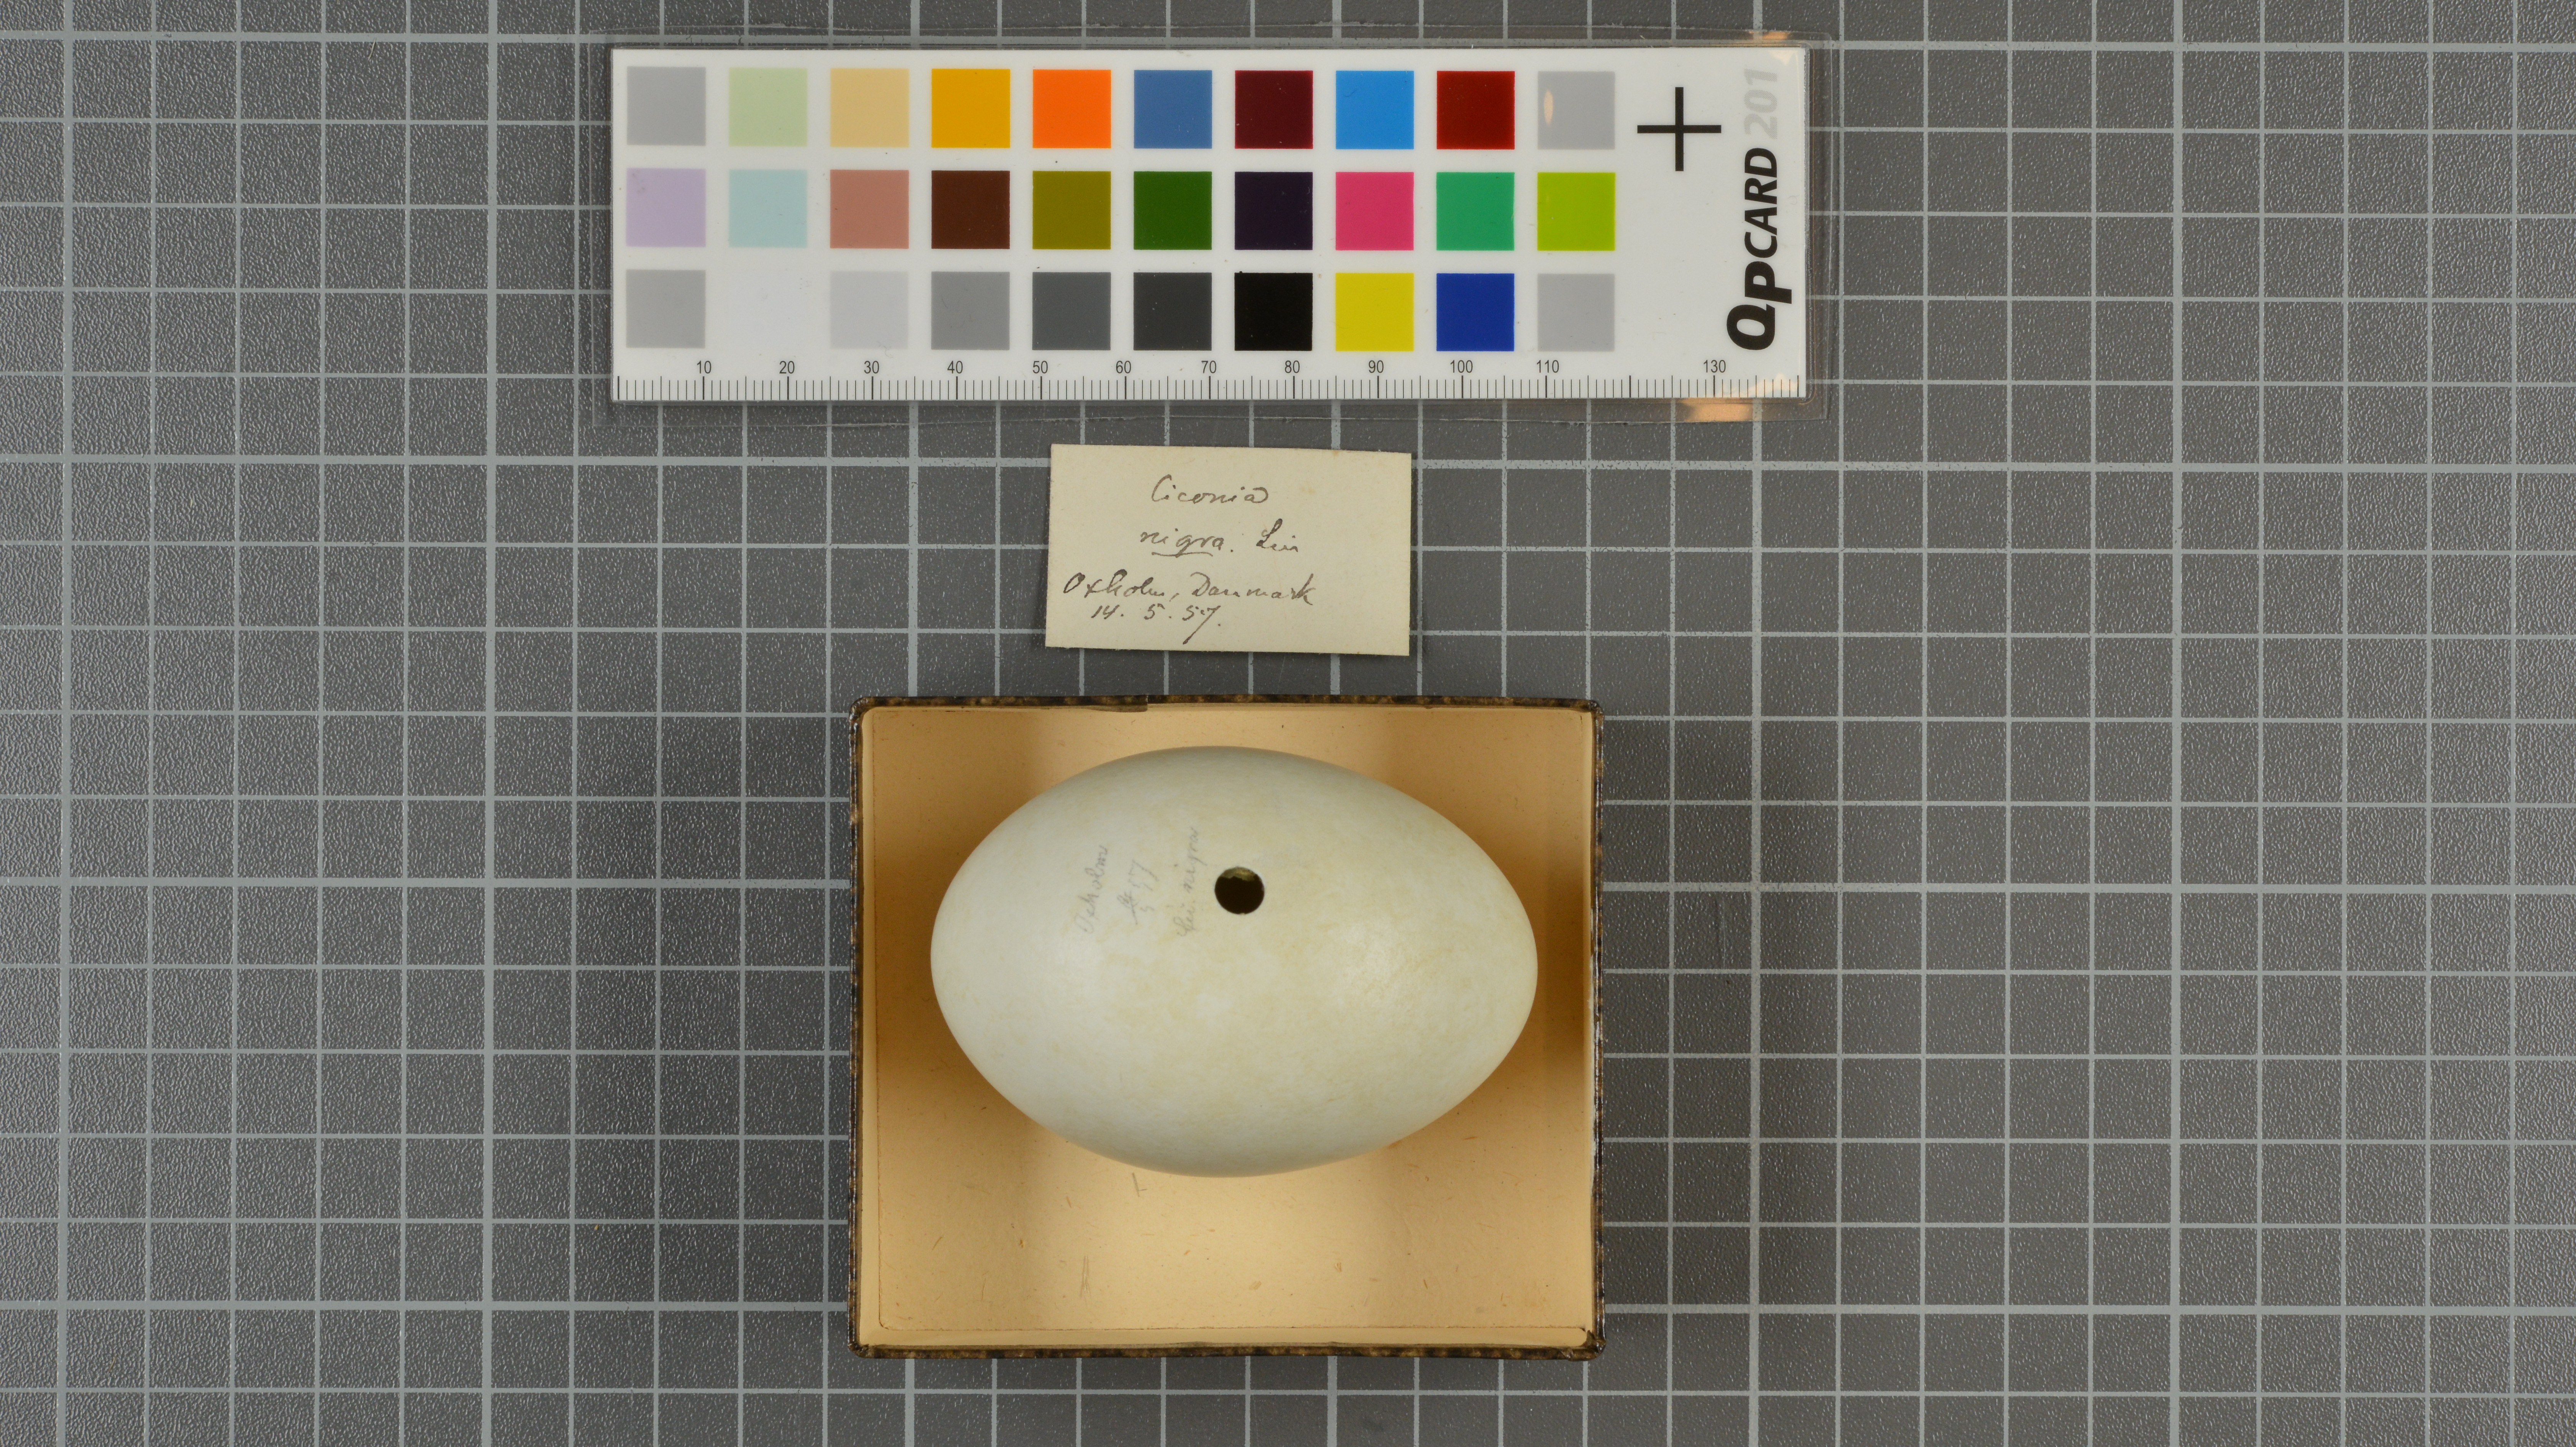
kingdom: Animalia
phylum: Chordata
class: Aves
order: Ciconiiformes
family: Ciconiidae
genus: Ciconia
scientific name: Ciconia nigra
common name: Black stork
